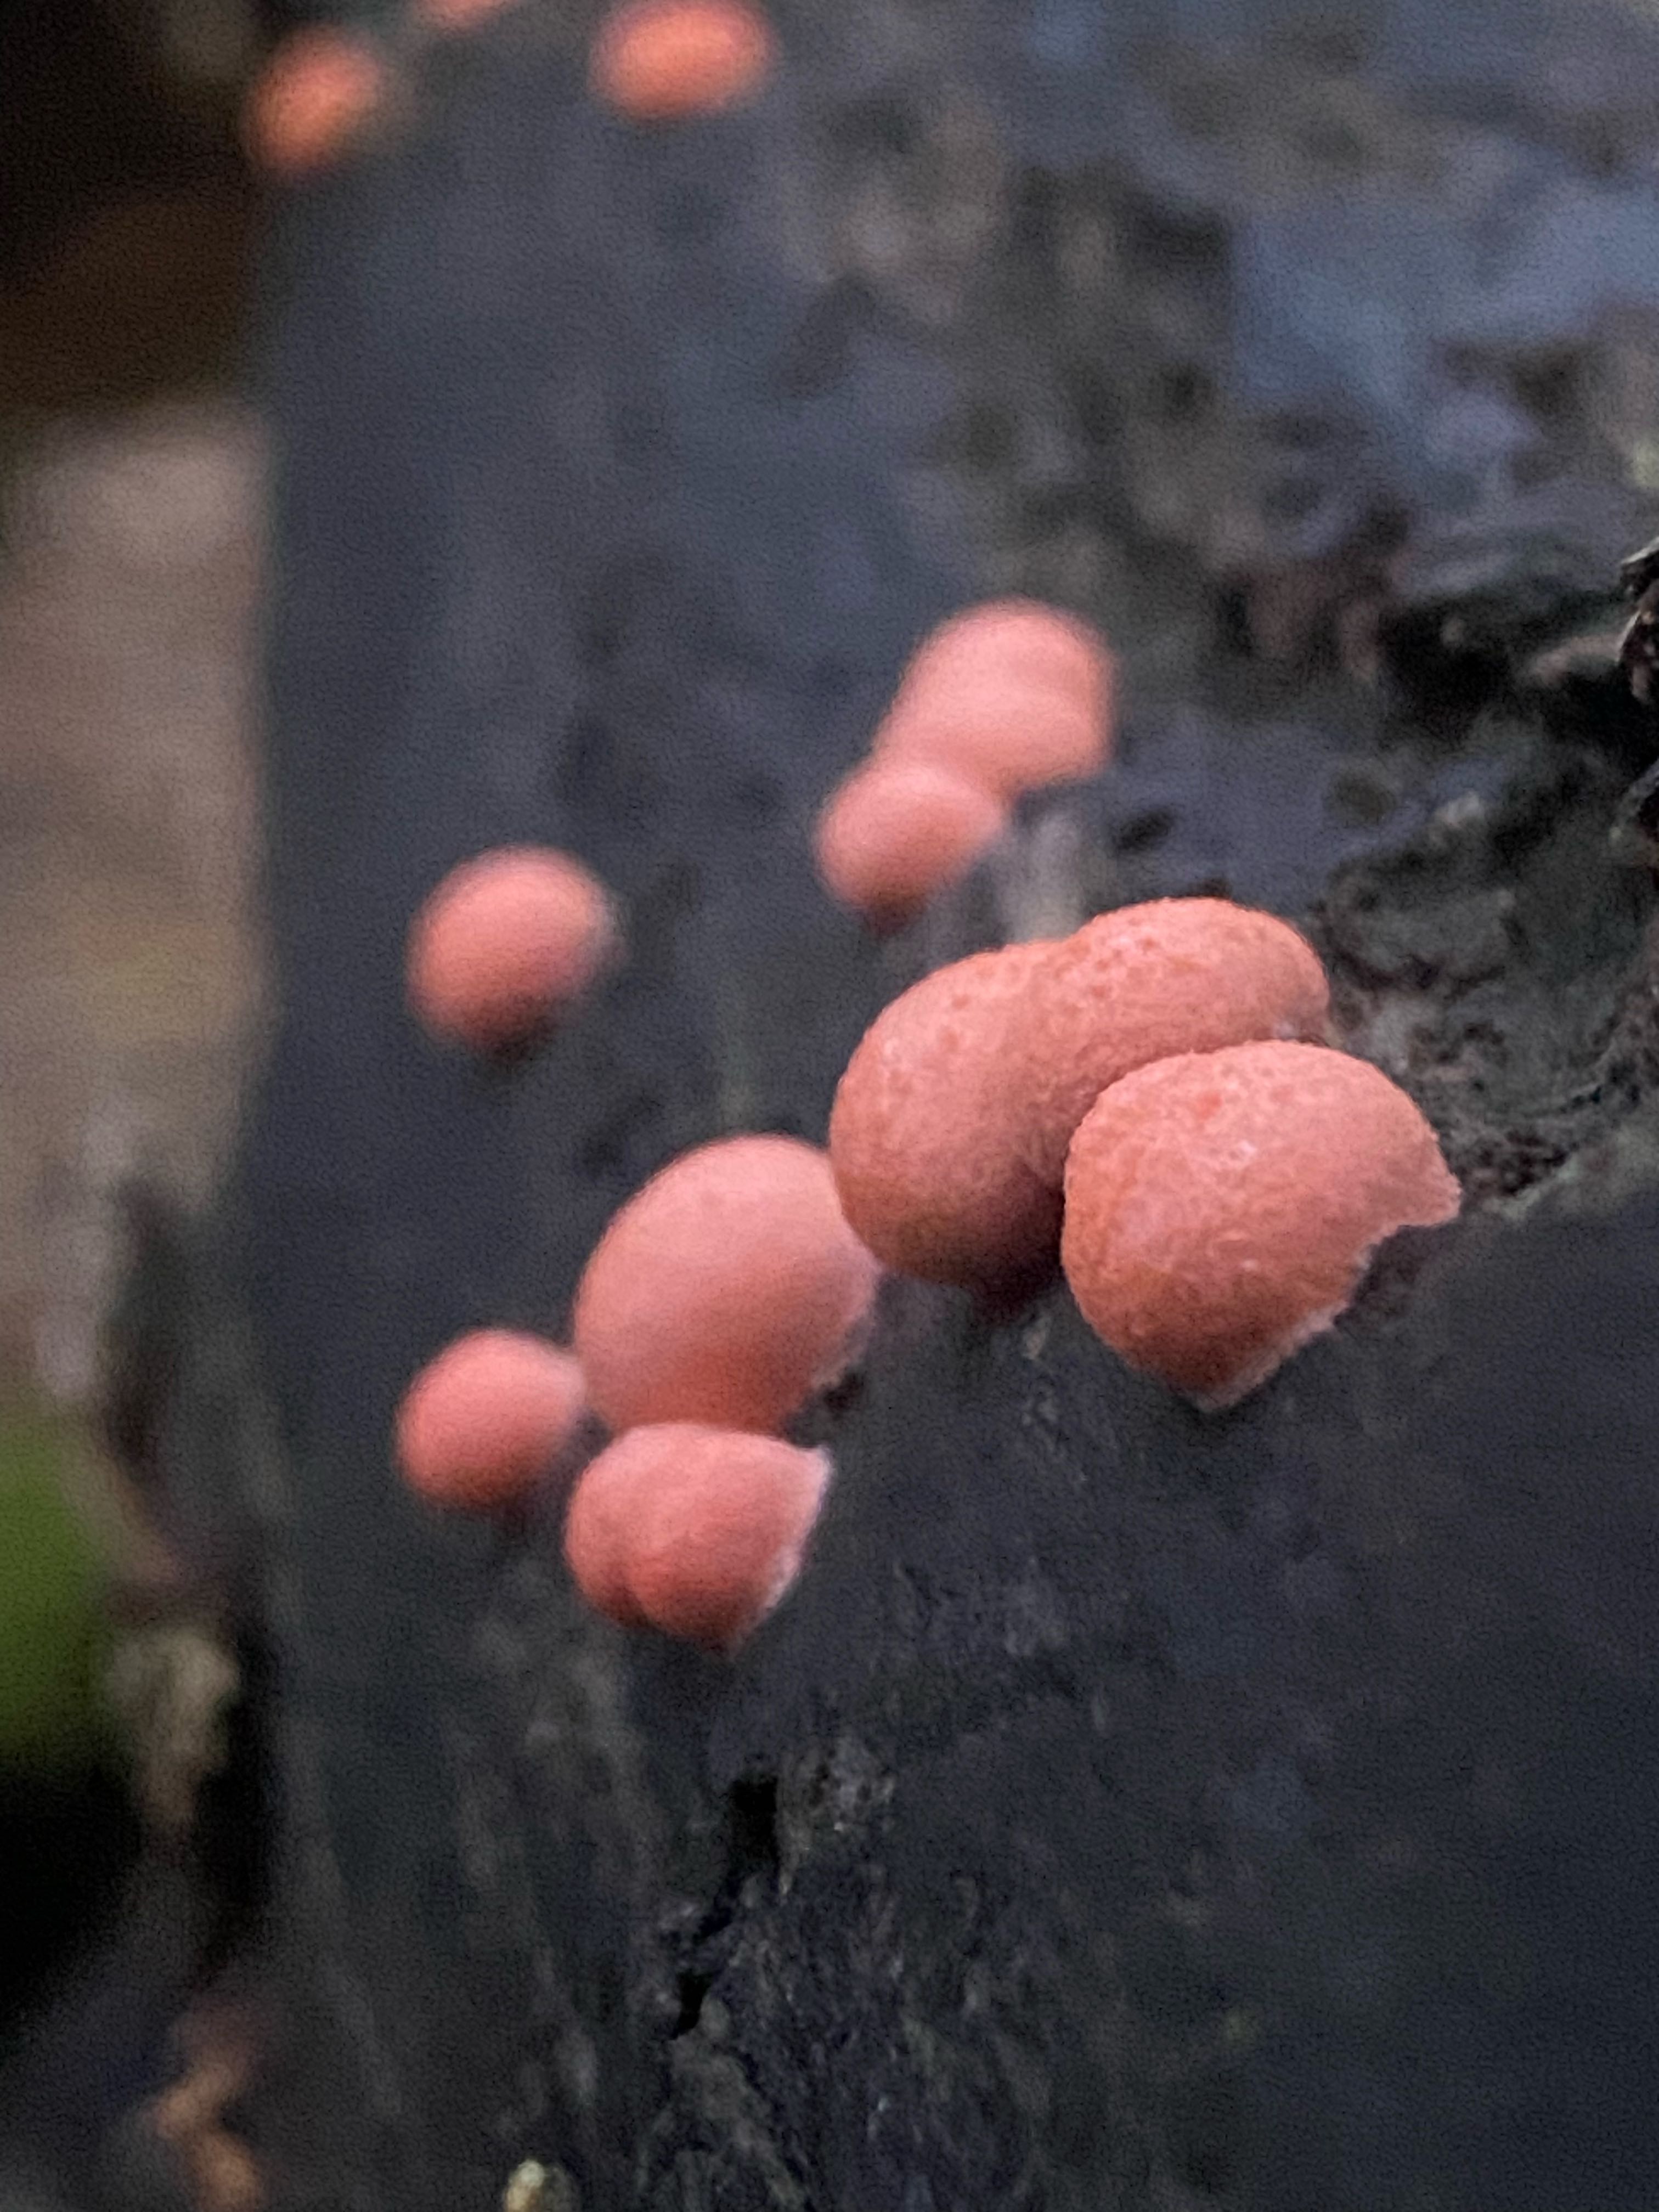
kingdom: Protozoa
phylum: Mycetozoa
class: Myxomycetes
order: Cribrariales
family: Tubiferaceae
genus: Lycogala
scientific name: Lycogala epidendrum
